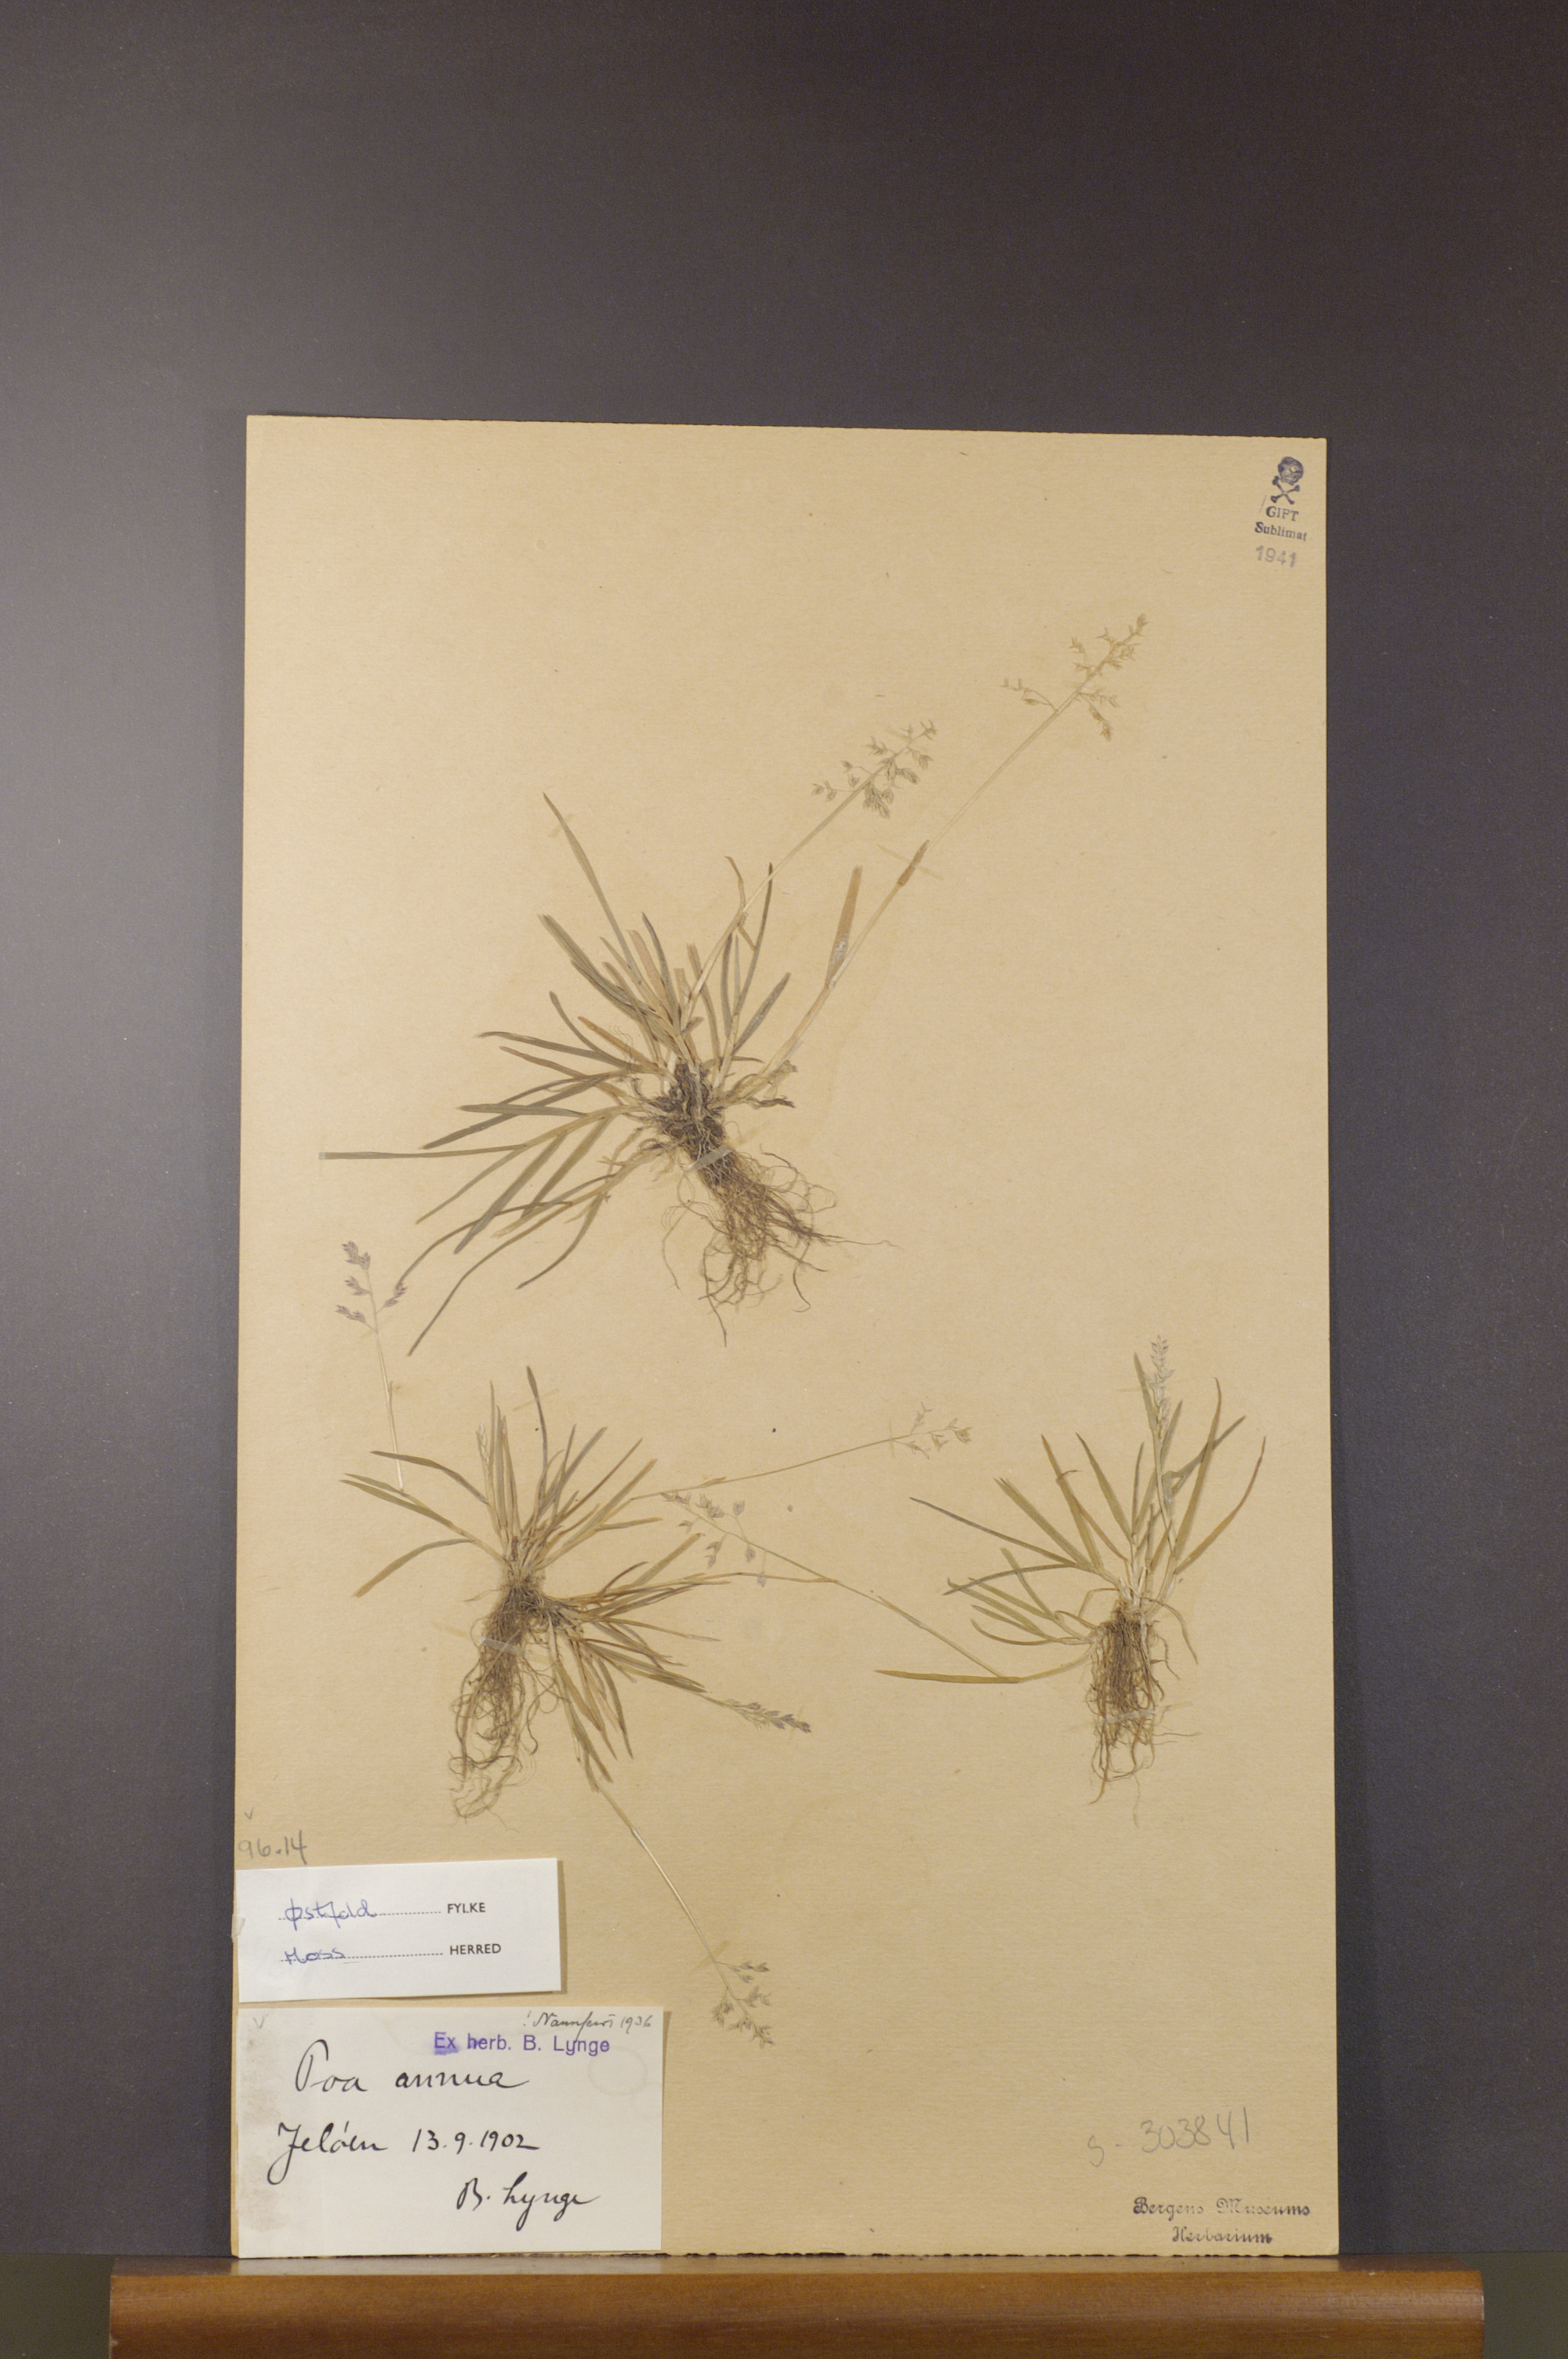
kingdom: Plantae
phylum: Tracheophyta
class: Liliopsida
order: Poales
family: Poaceae
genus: Poa
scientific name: Poa annua
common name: Annual bluegrass
